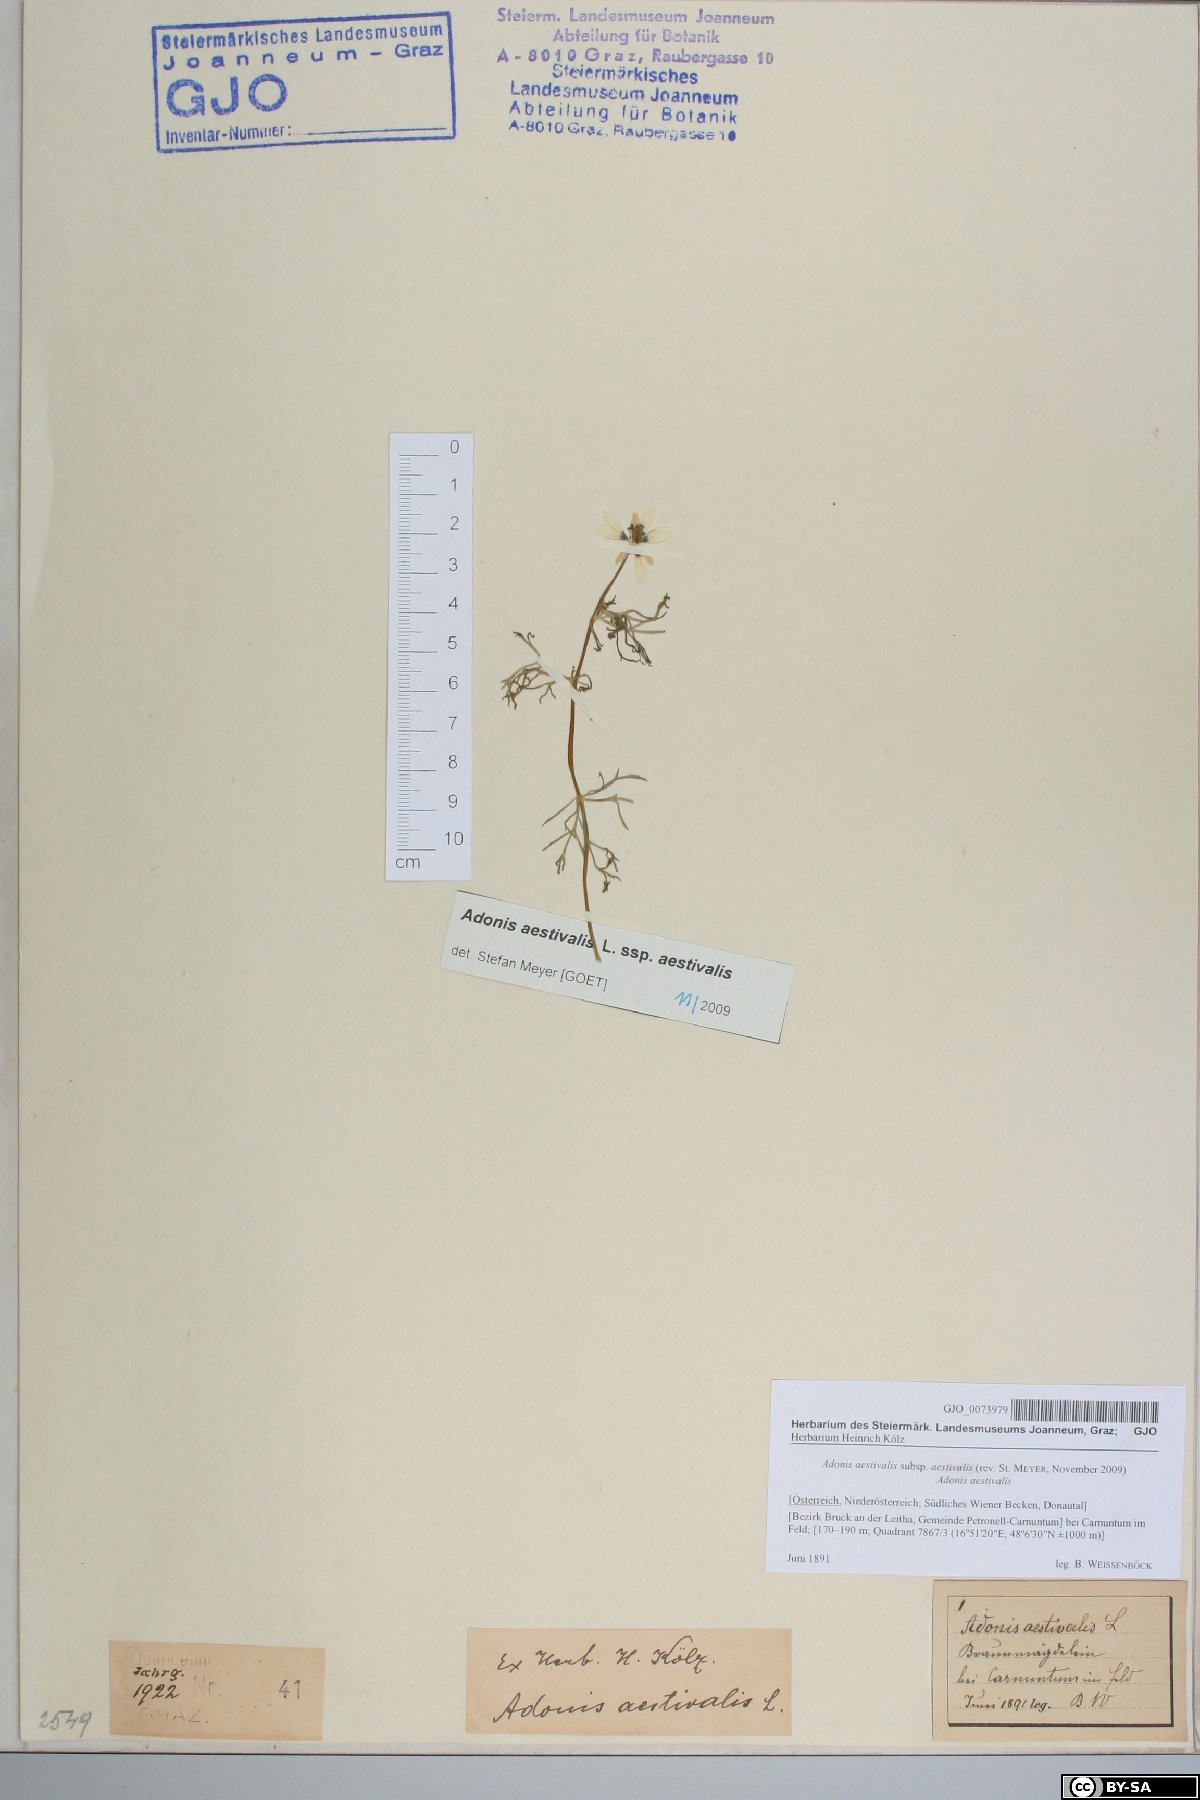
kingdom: Plantae
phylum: Tracheophyta
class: Magnoliopsida
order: Ranunculales
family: Ranunculaceae
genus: Adonis
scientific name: Adonis aestivalis
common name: Summer pheasant's-eye
